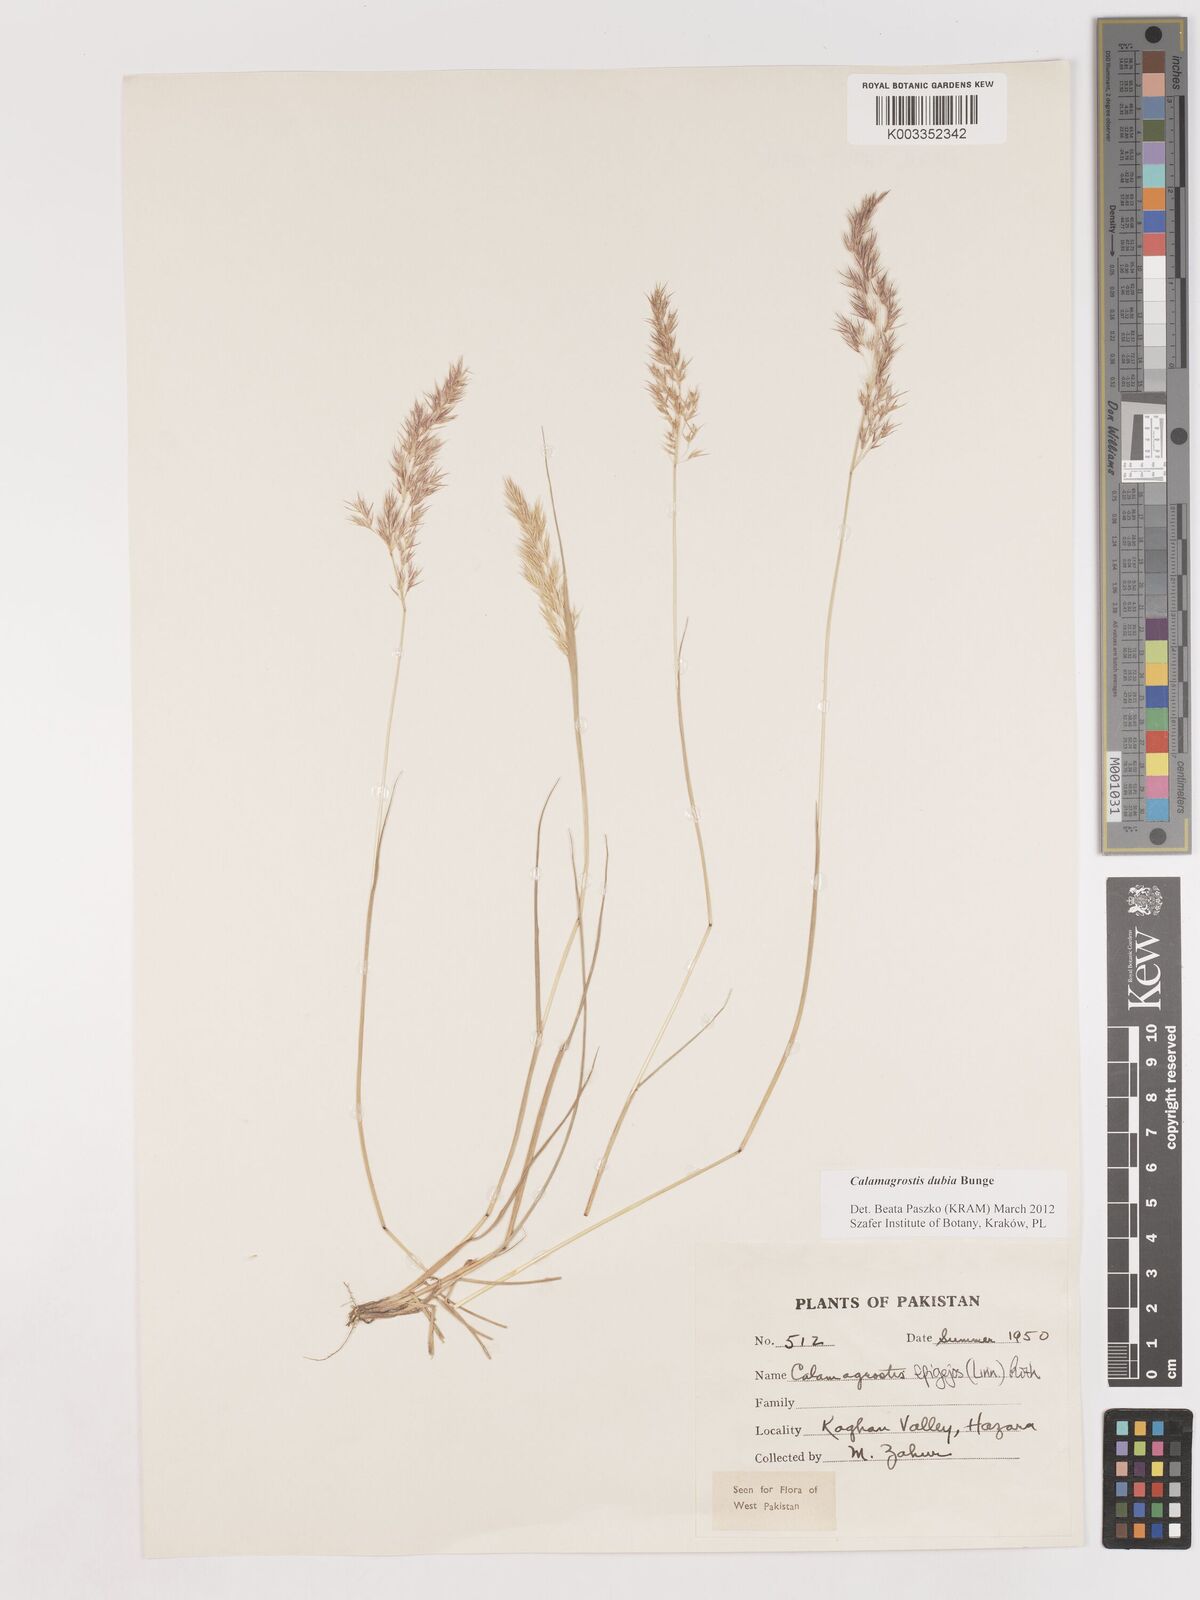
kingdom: Plantae
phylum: Tracheophyta
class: Liliopsida
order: Poales
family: Poaceae
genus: Calamagrostis
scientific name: Calamagrostis pseudophragmites
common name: Coastal small-reed
